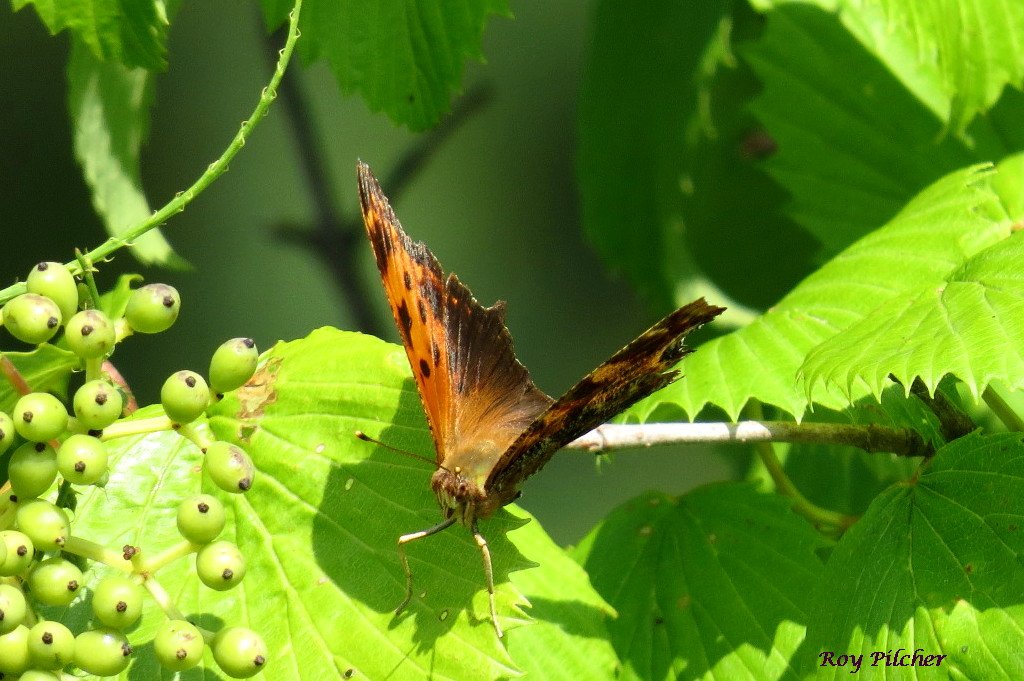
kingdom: Animalia
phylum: Arthropoda
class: Insecta
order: Lepidoptera
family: Nymphalidae
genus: Polygonia
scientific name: Polygonia comma
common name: Eastern Comma
